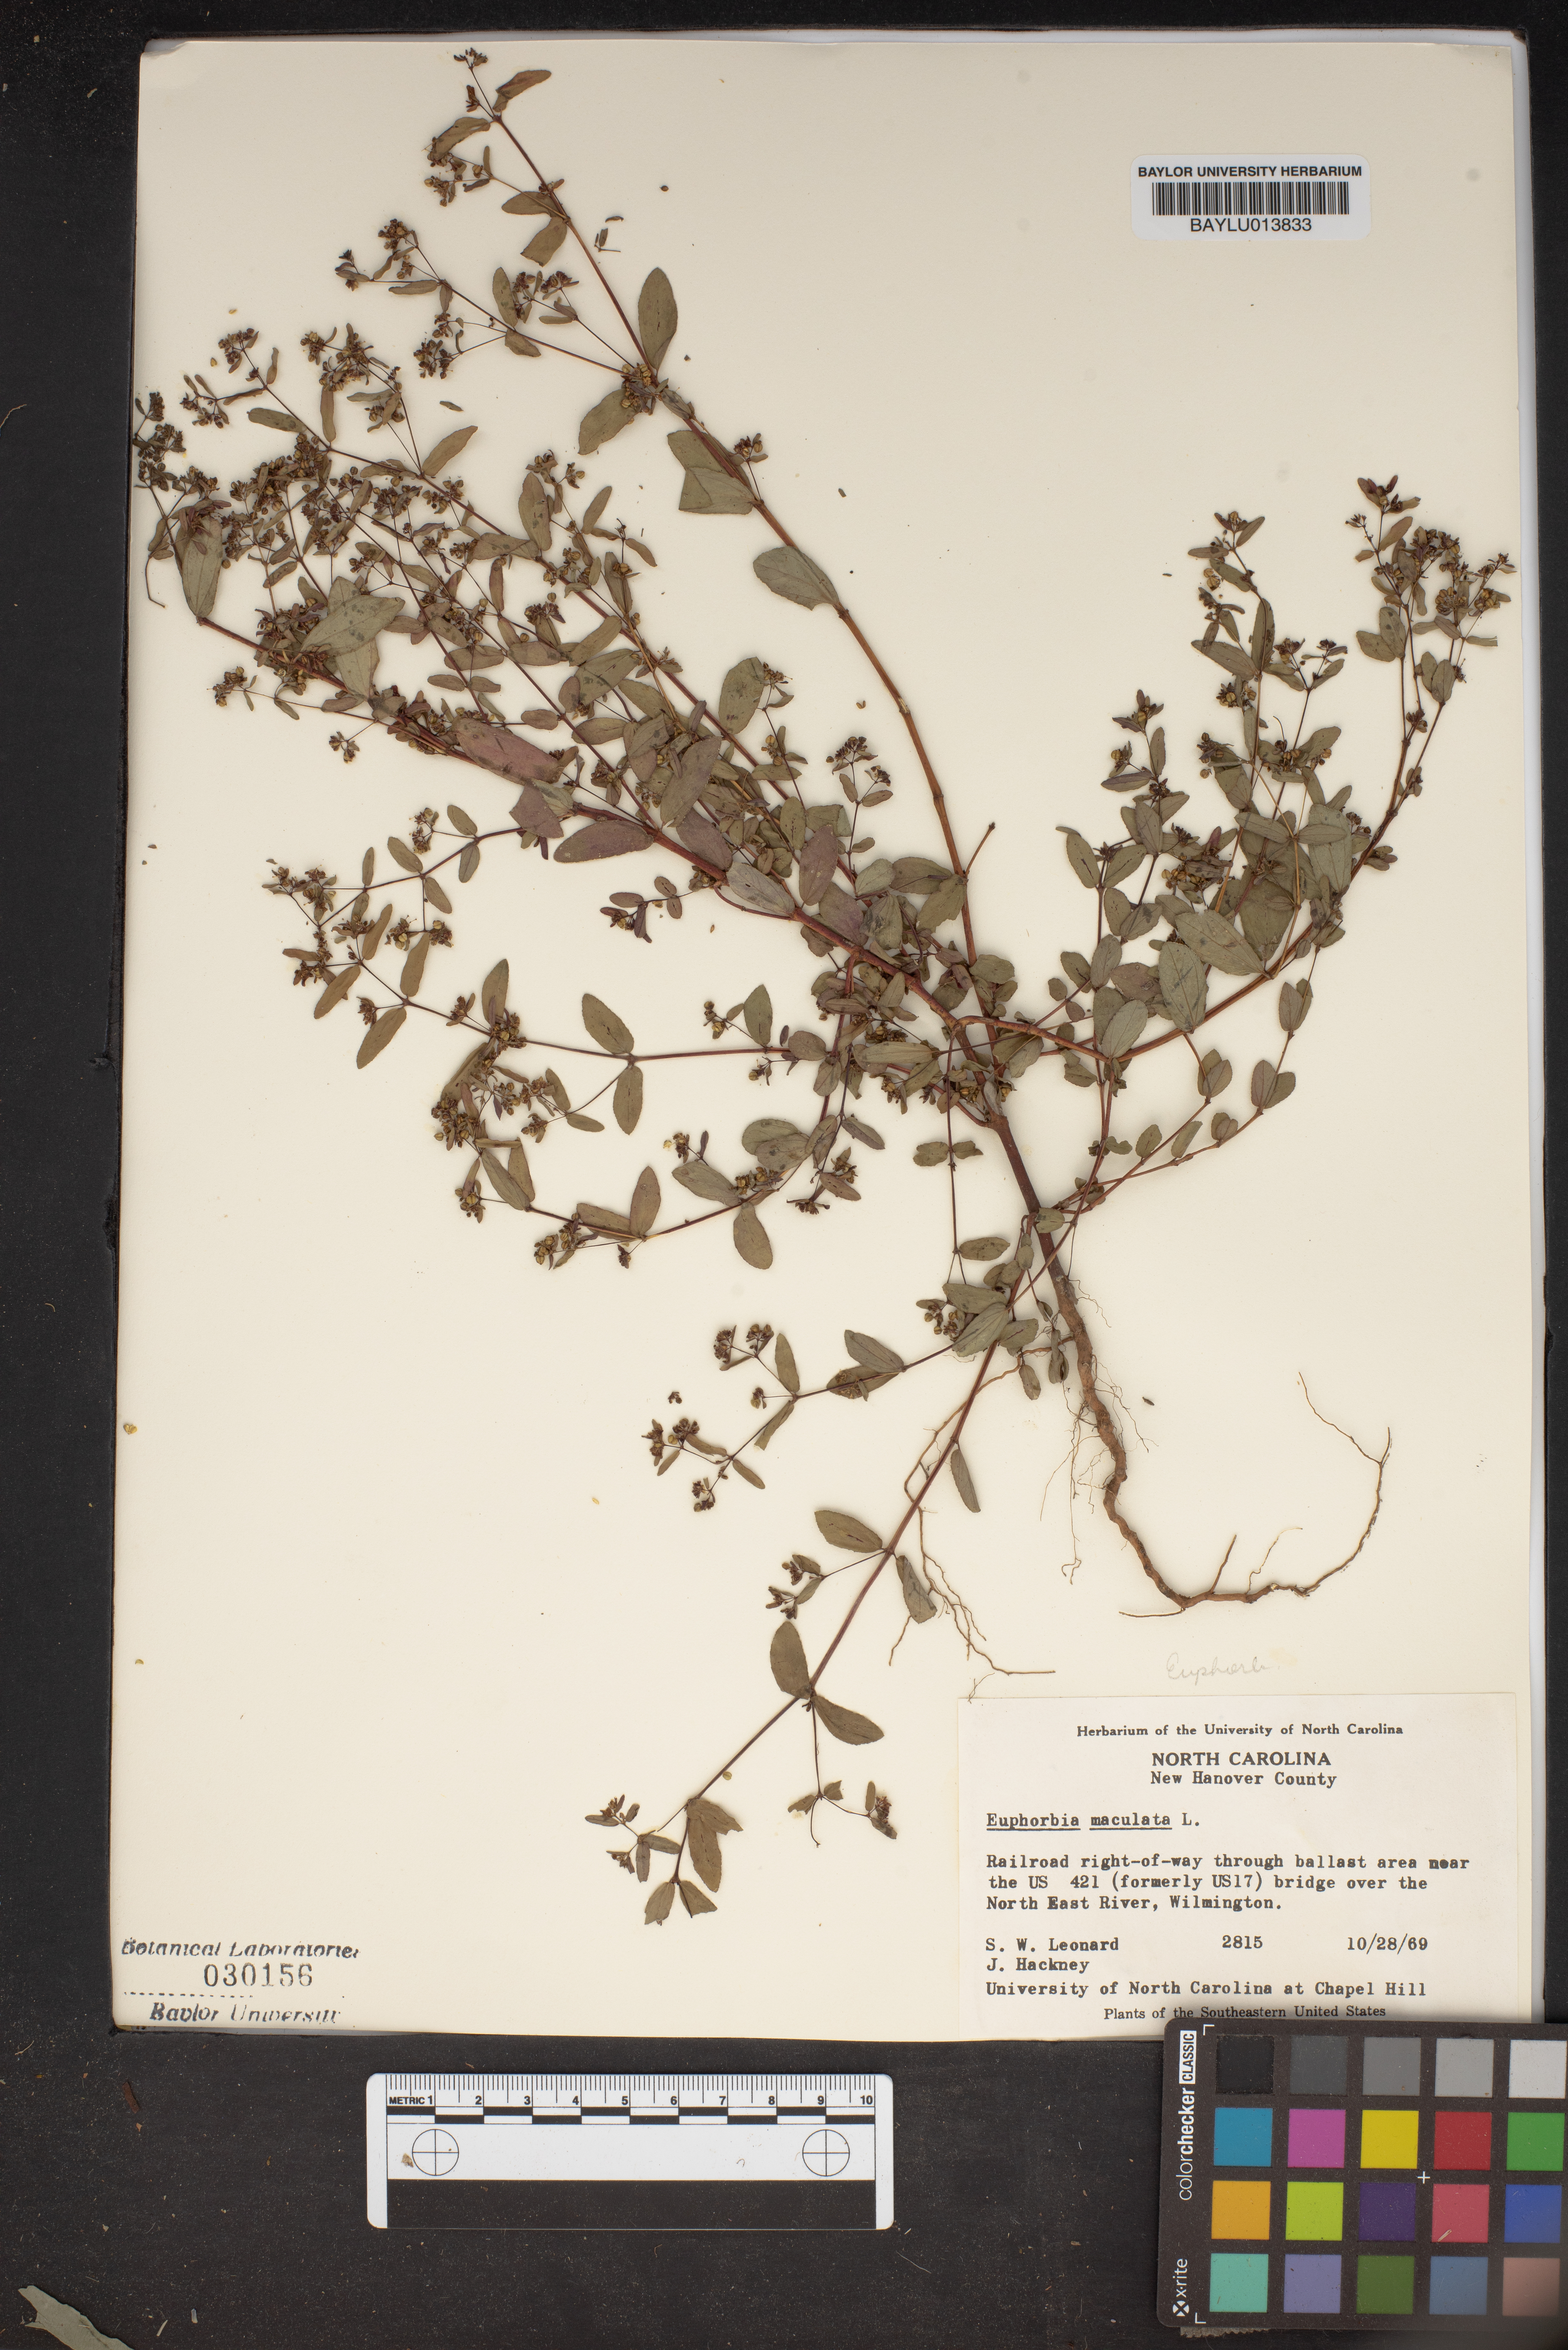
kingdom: Plantae
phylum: Tracheophyta
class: Magnoliopsida
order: Malpighiales
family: Euphorbiaceae
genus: Euphorbia
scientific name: Euphorbia maculata
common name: Spotted spurge
